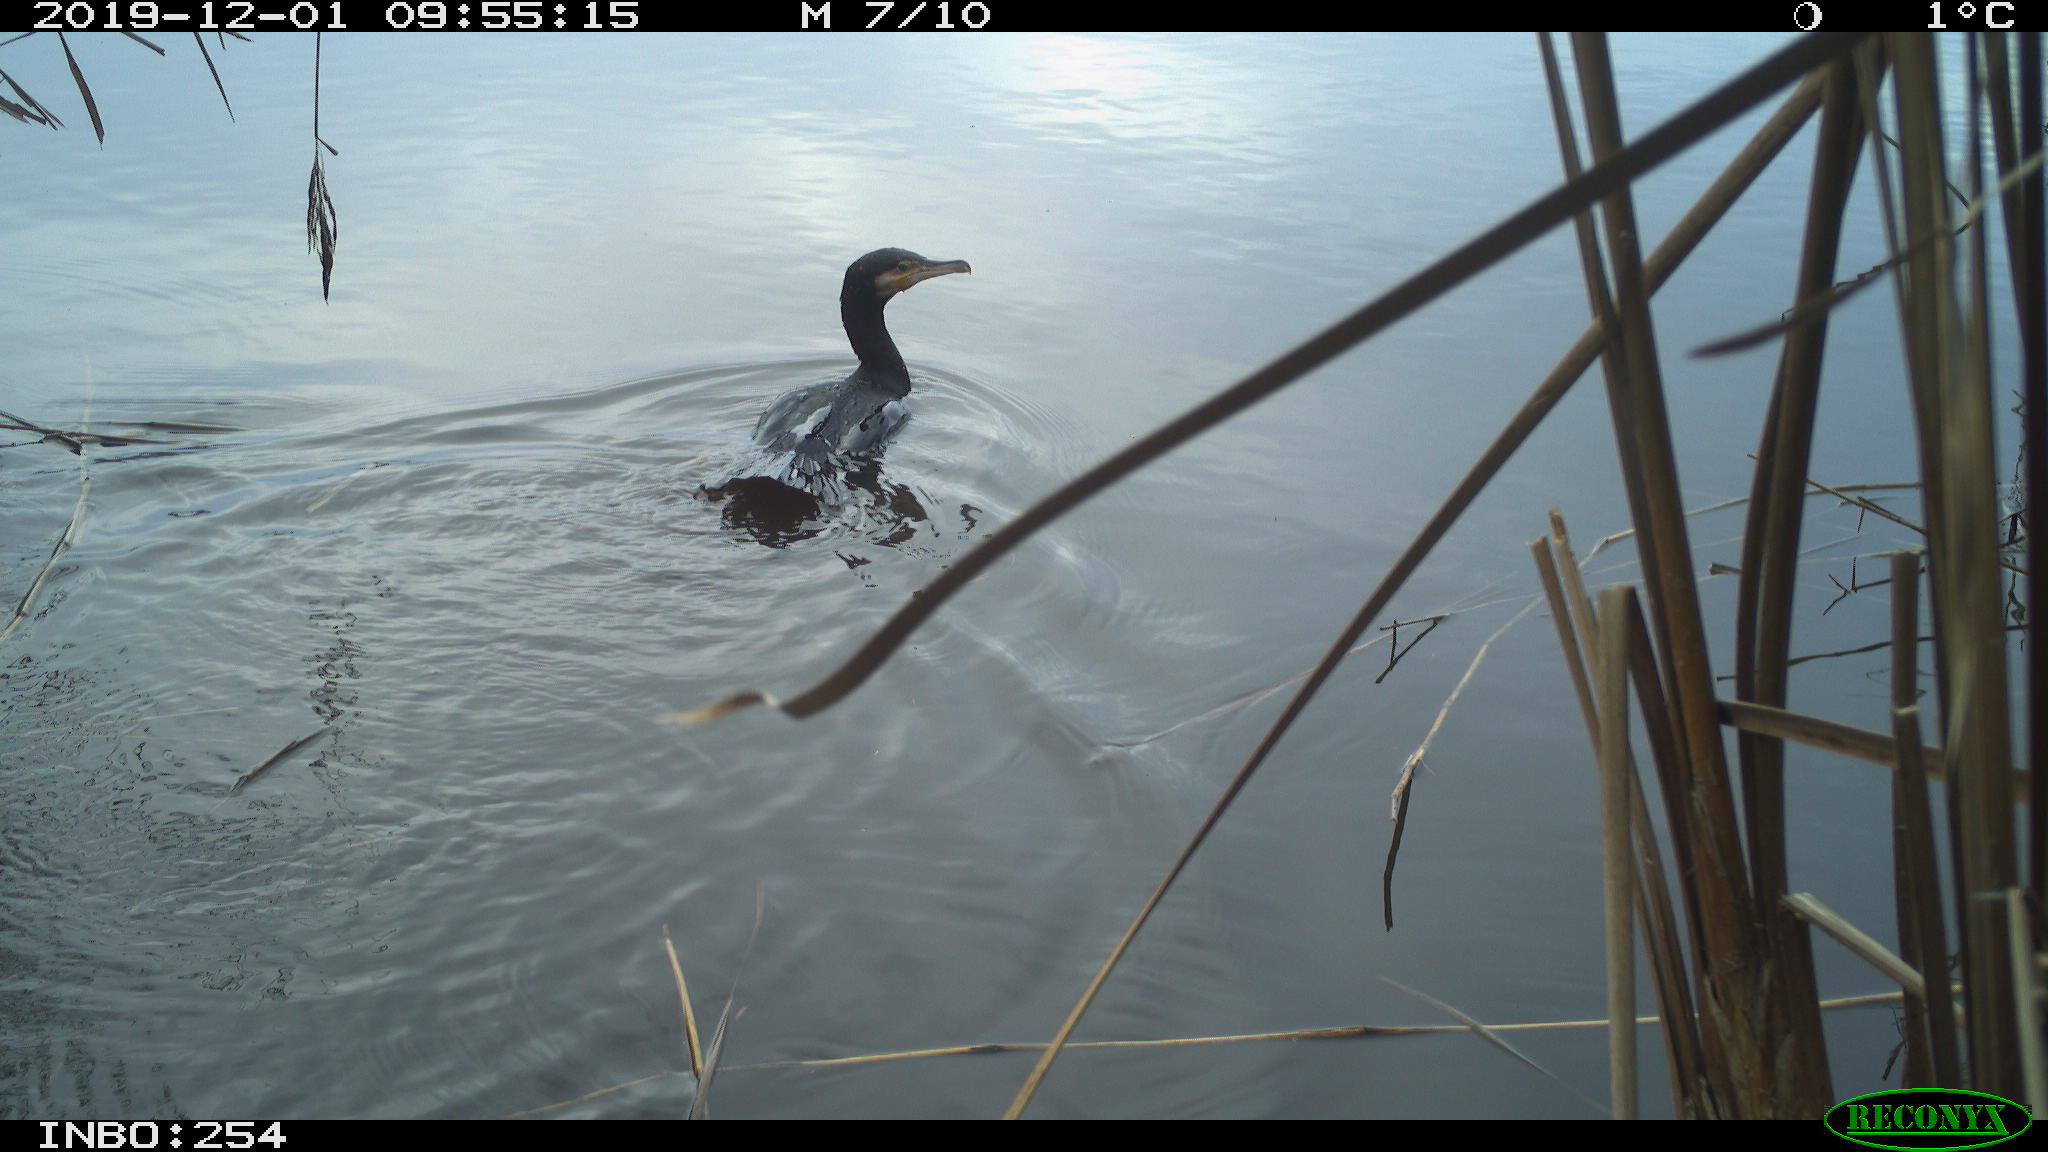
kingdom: Animalia
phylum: Chordata
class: Aves
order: Suliformes
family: Phalacrocoracidae
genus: Phalacrocorax
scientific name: Phalacrocorax carbo
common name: Great cormorant
